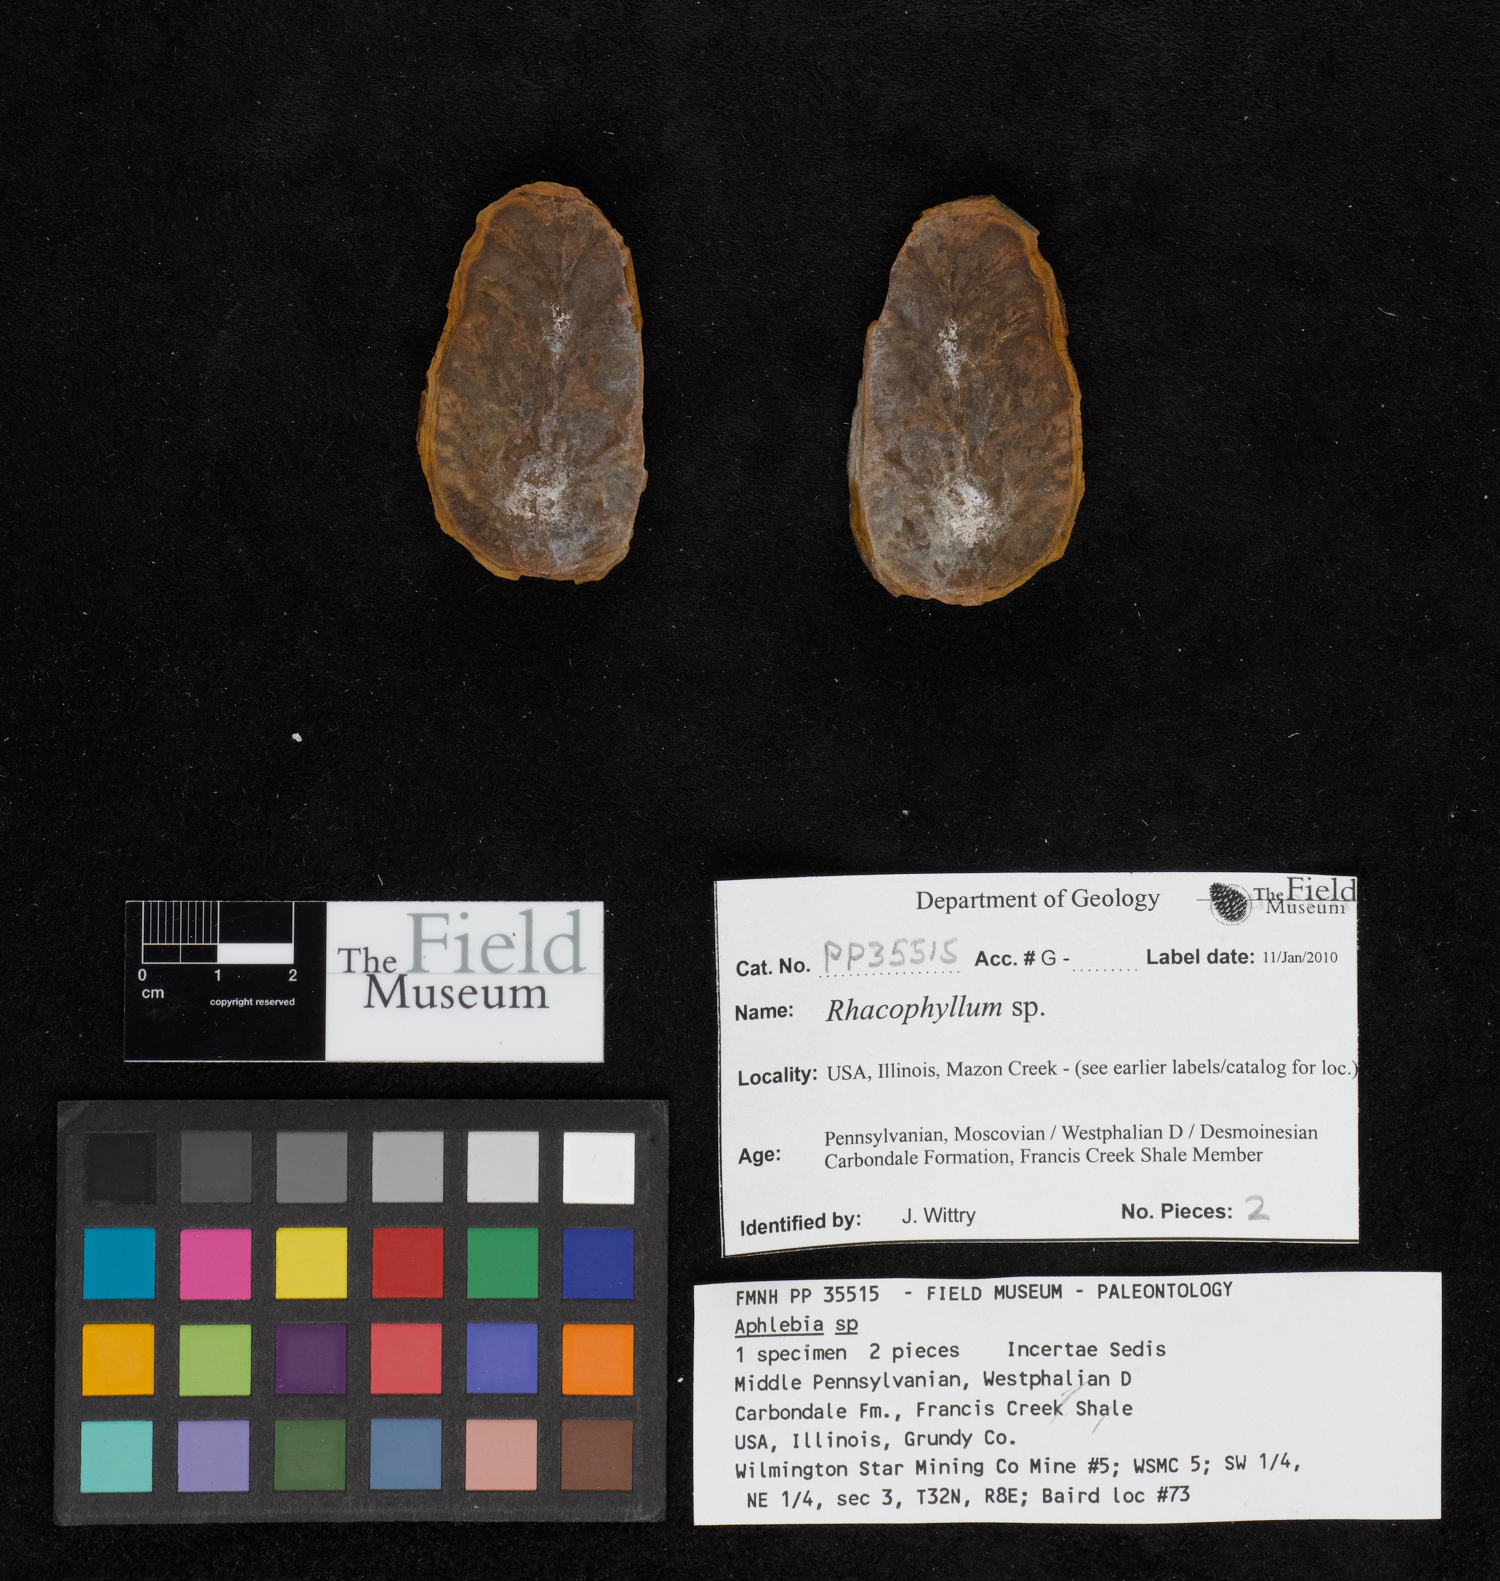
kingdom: Plantae
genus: Rhacophyllum
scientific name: Rhacophyllum
